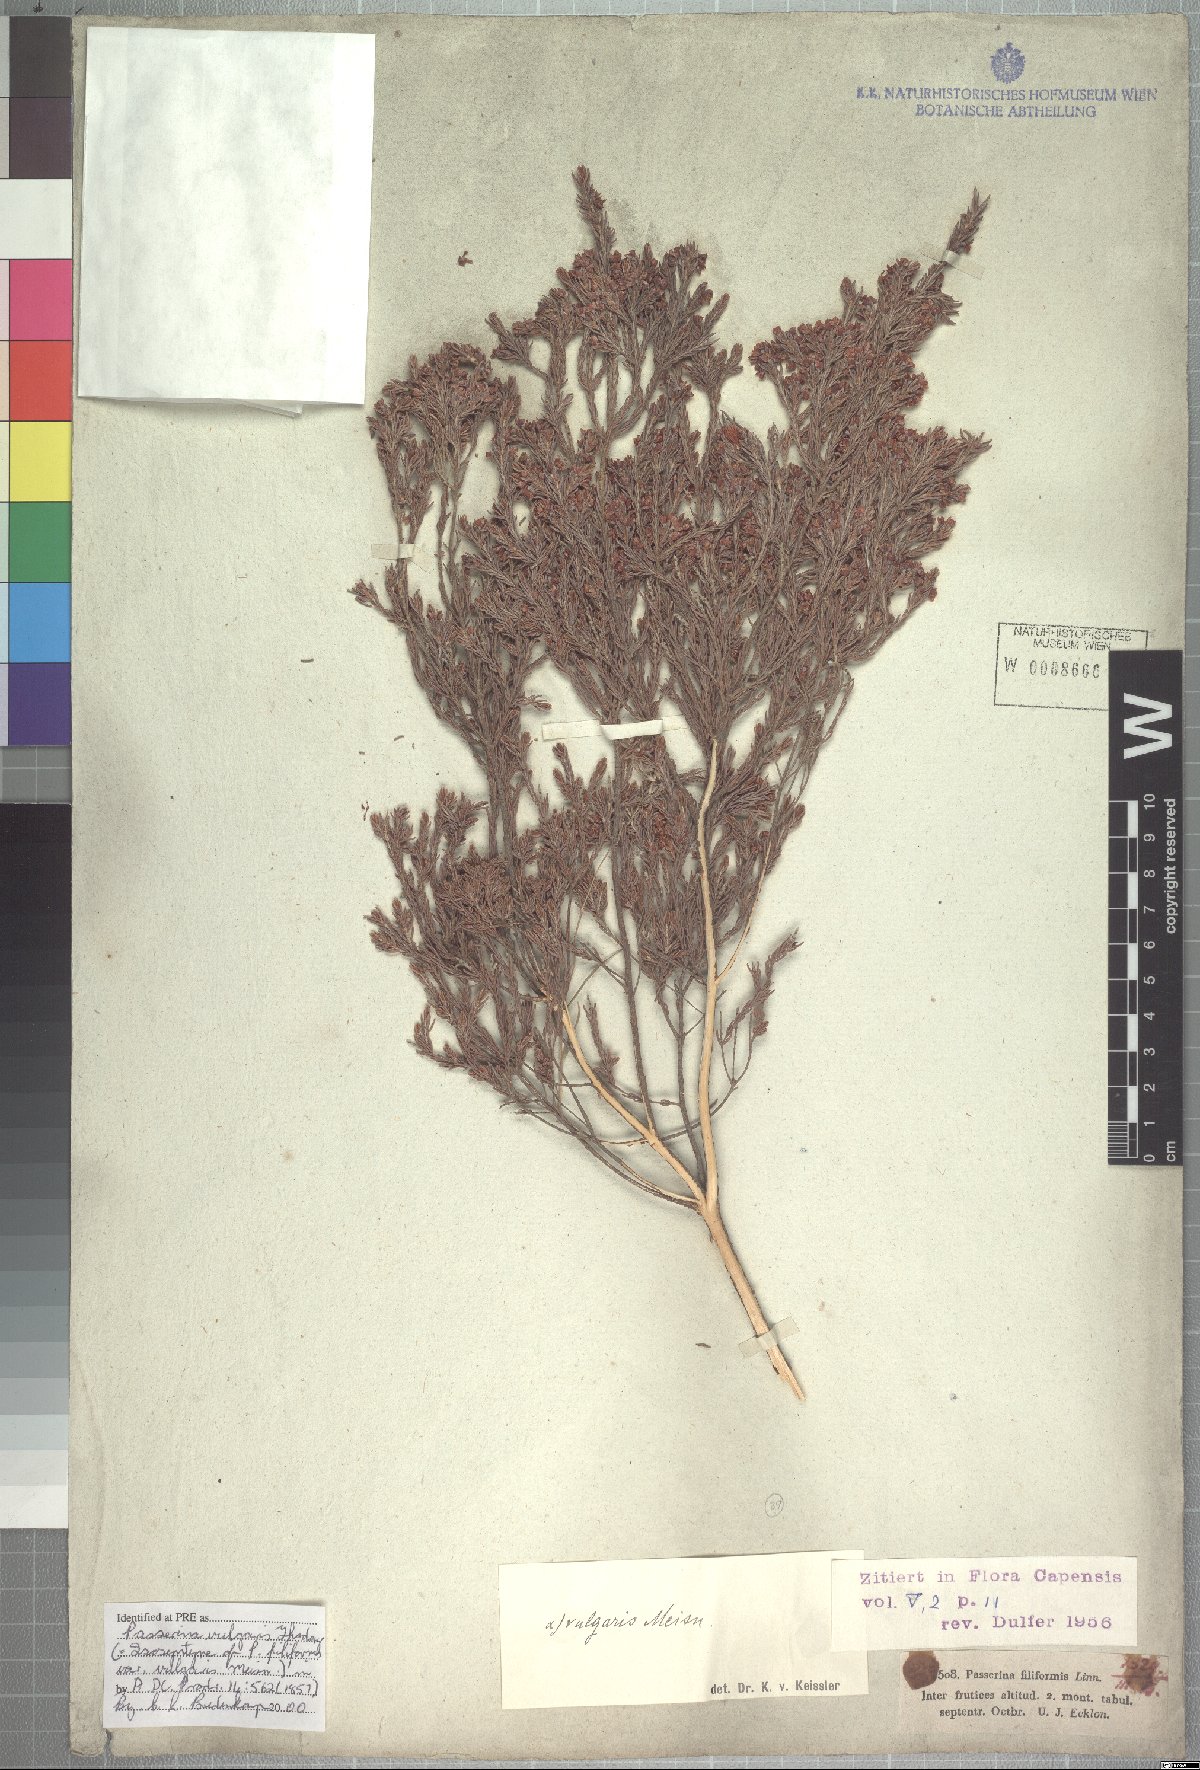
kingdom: Plantae
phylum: Tracheophyta
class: Magnoliopsida
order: Malvales
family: Thymelaeaceae
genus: Passerina
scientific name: Passerina corymbosa
